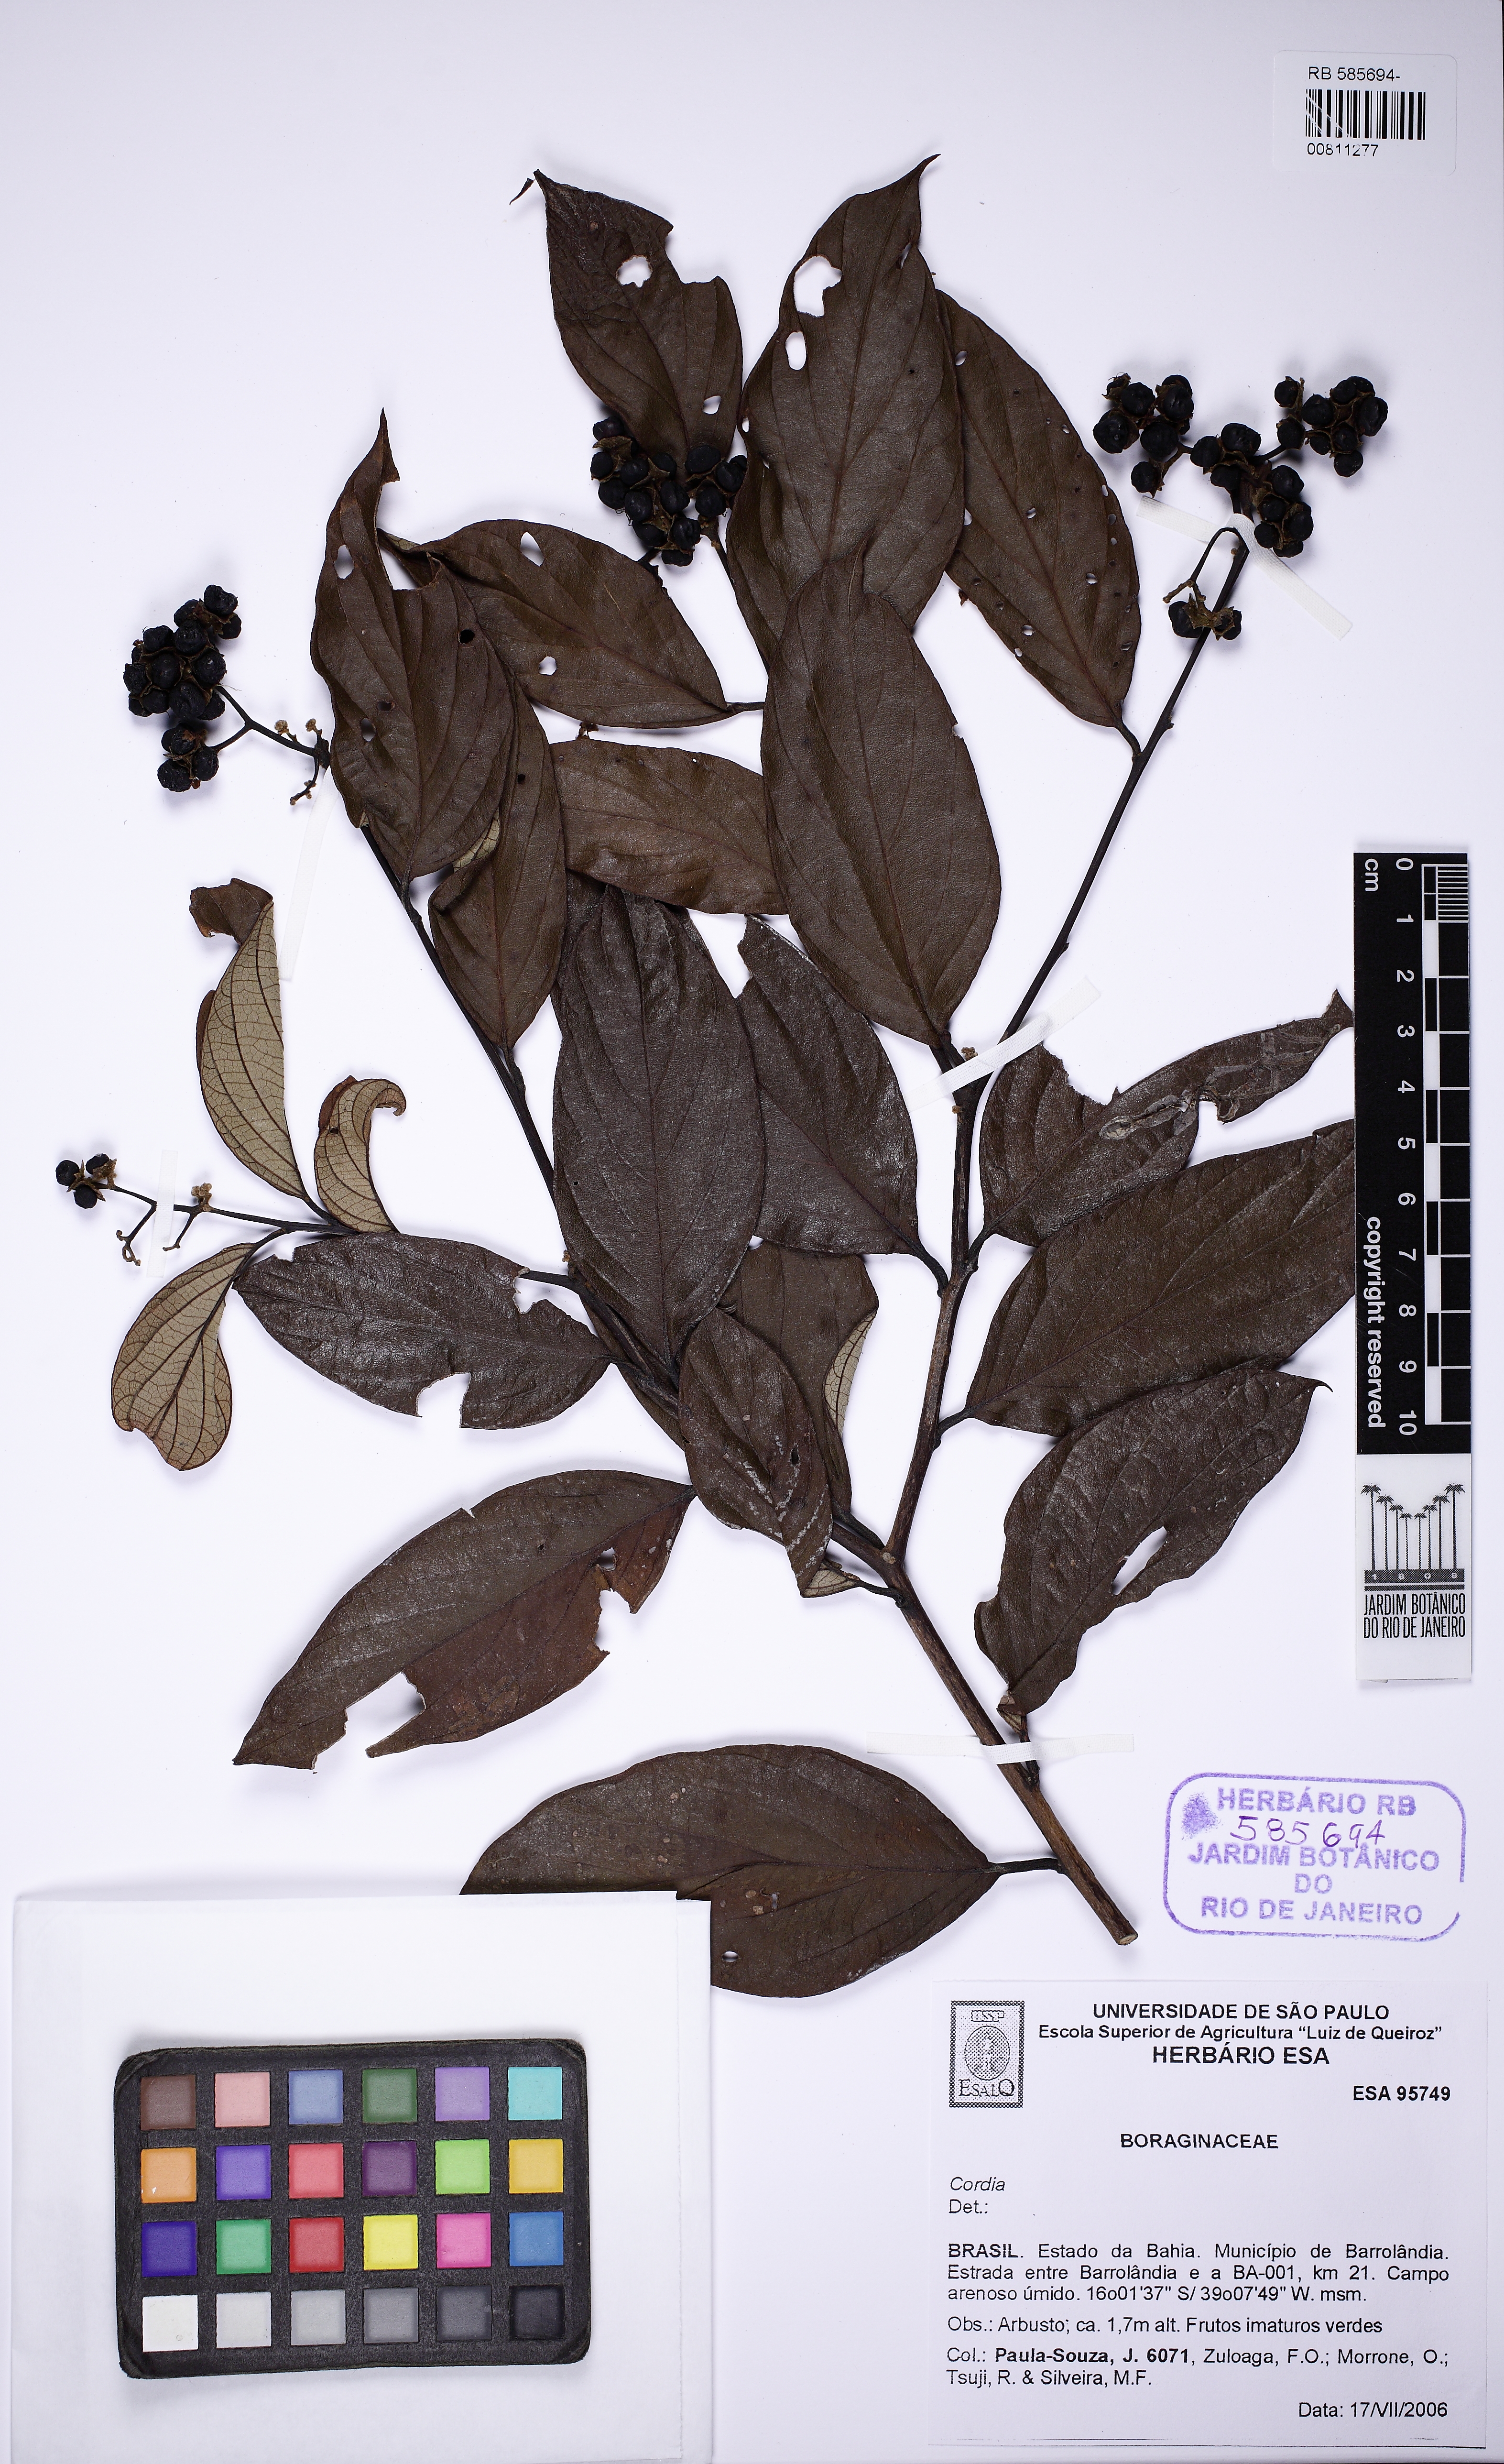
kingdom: Plantae
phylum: Tracheophyta
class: Magnoliopsida
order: Boraginales
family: Cordiaceae
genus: Cordia
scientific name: Cordia
